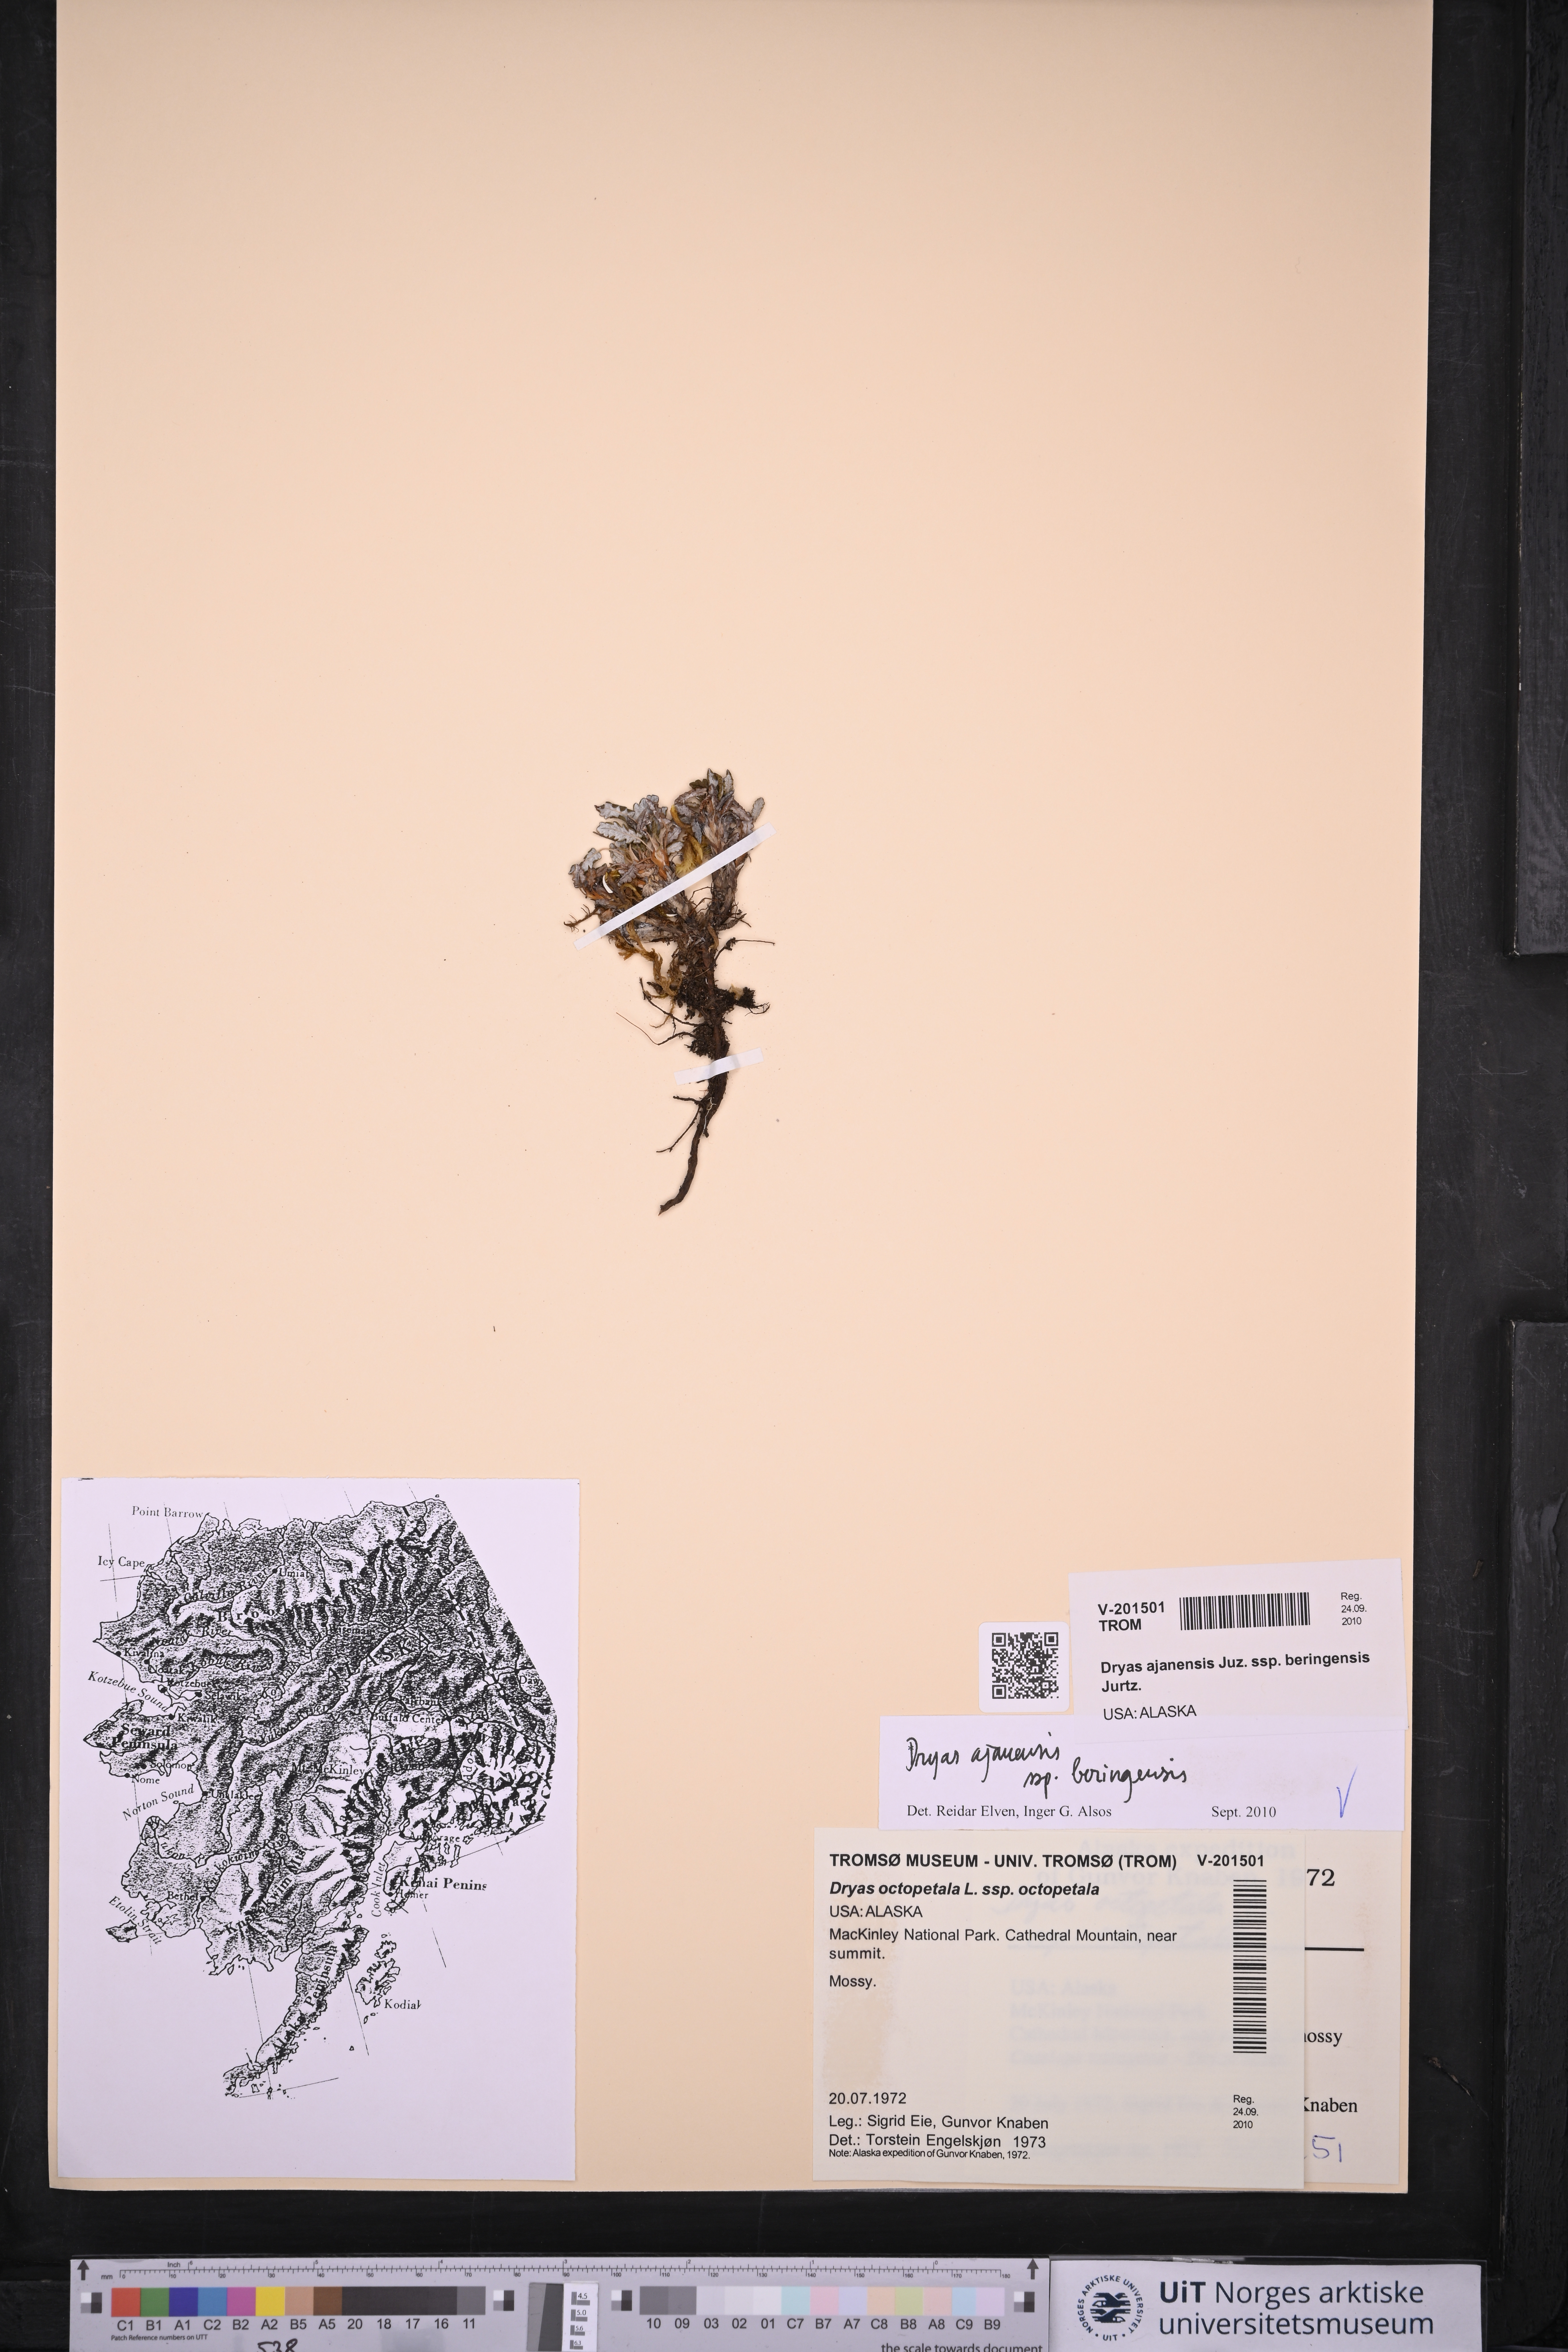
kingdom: Plantae
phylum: Tracheophyta
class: Magnoliopsida
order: Rosales
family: Rosaceae
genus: Dryas
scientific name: Dryas octopetala
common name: Eight-petal mountain-avens
